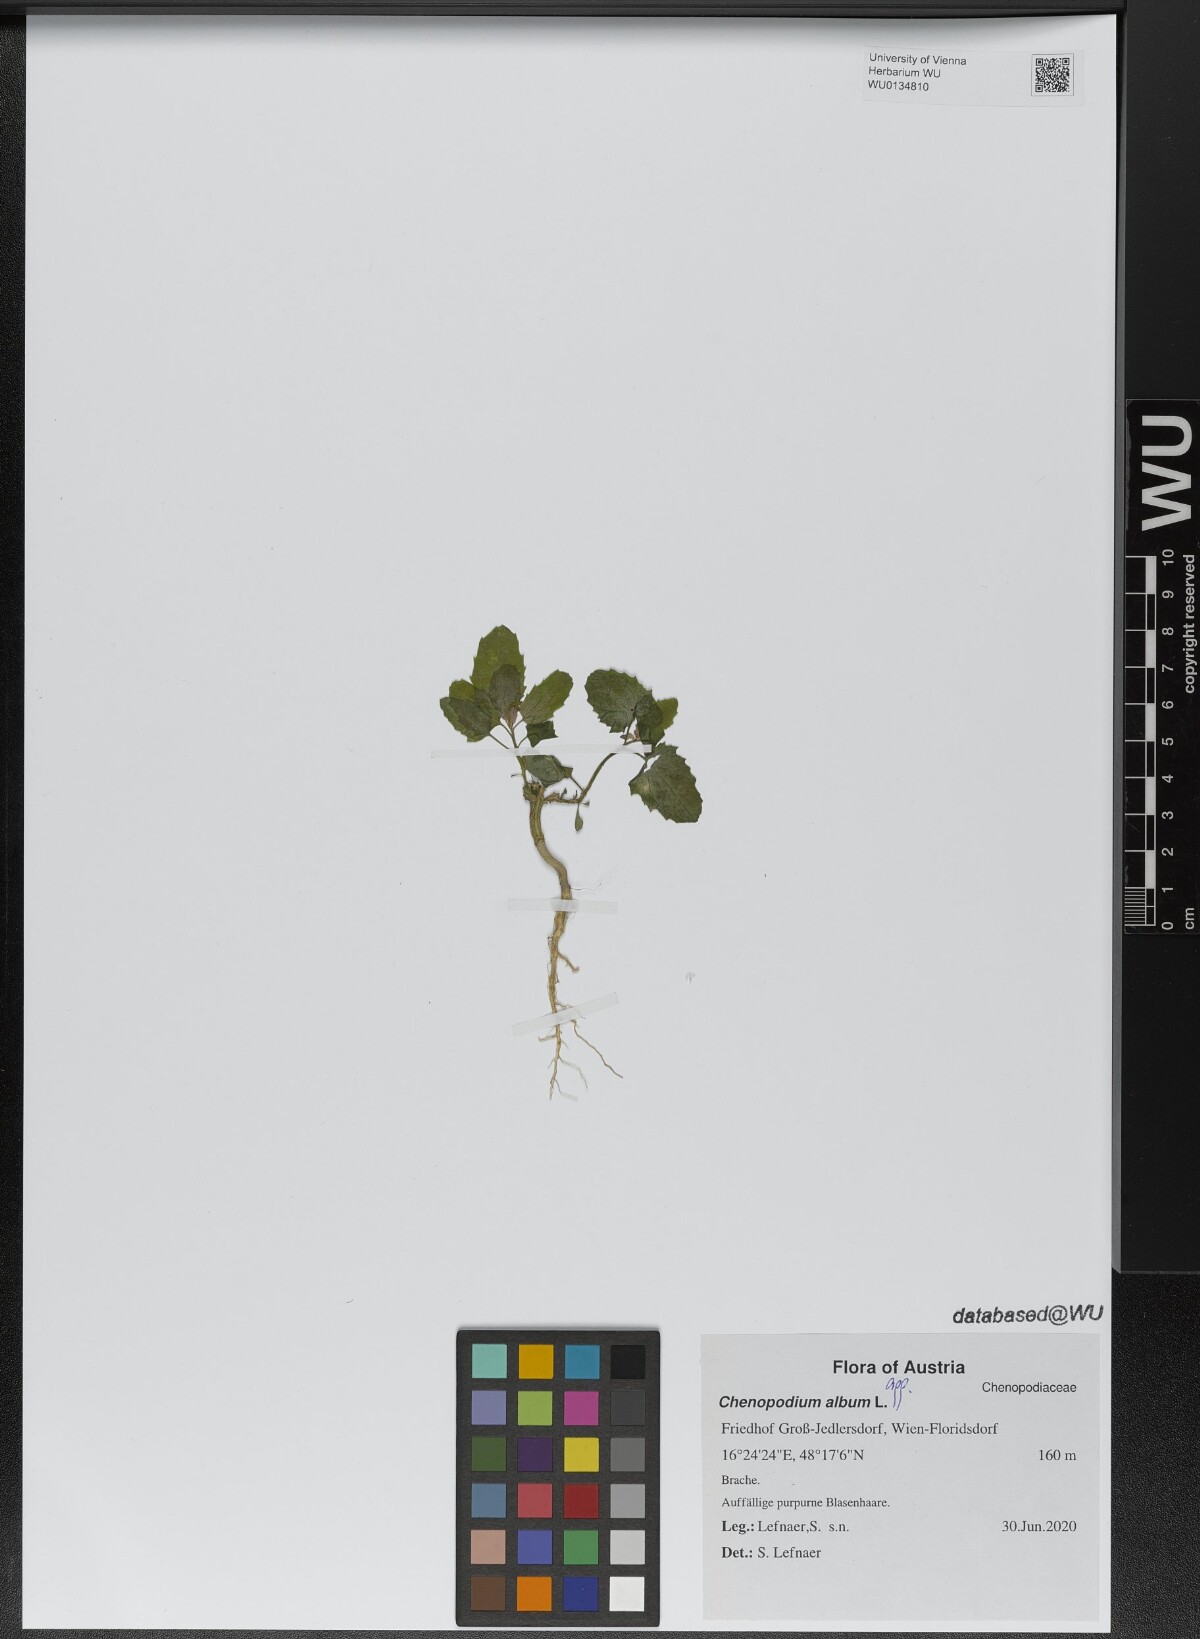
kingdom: Plantae
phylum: Tracheophyta
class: Magnoliopsida
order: Caryophyllales
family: Amaranthaceae
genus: Chenopodium
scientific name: Chenopodium album
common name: Fat-hen
